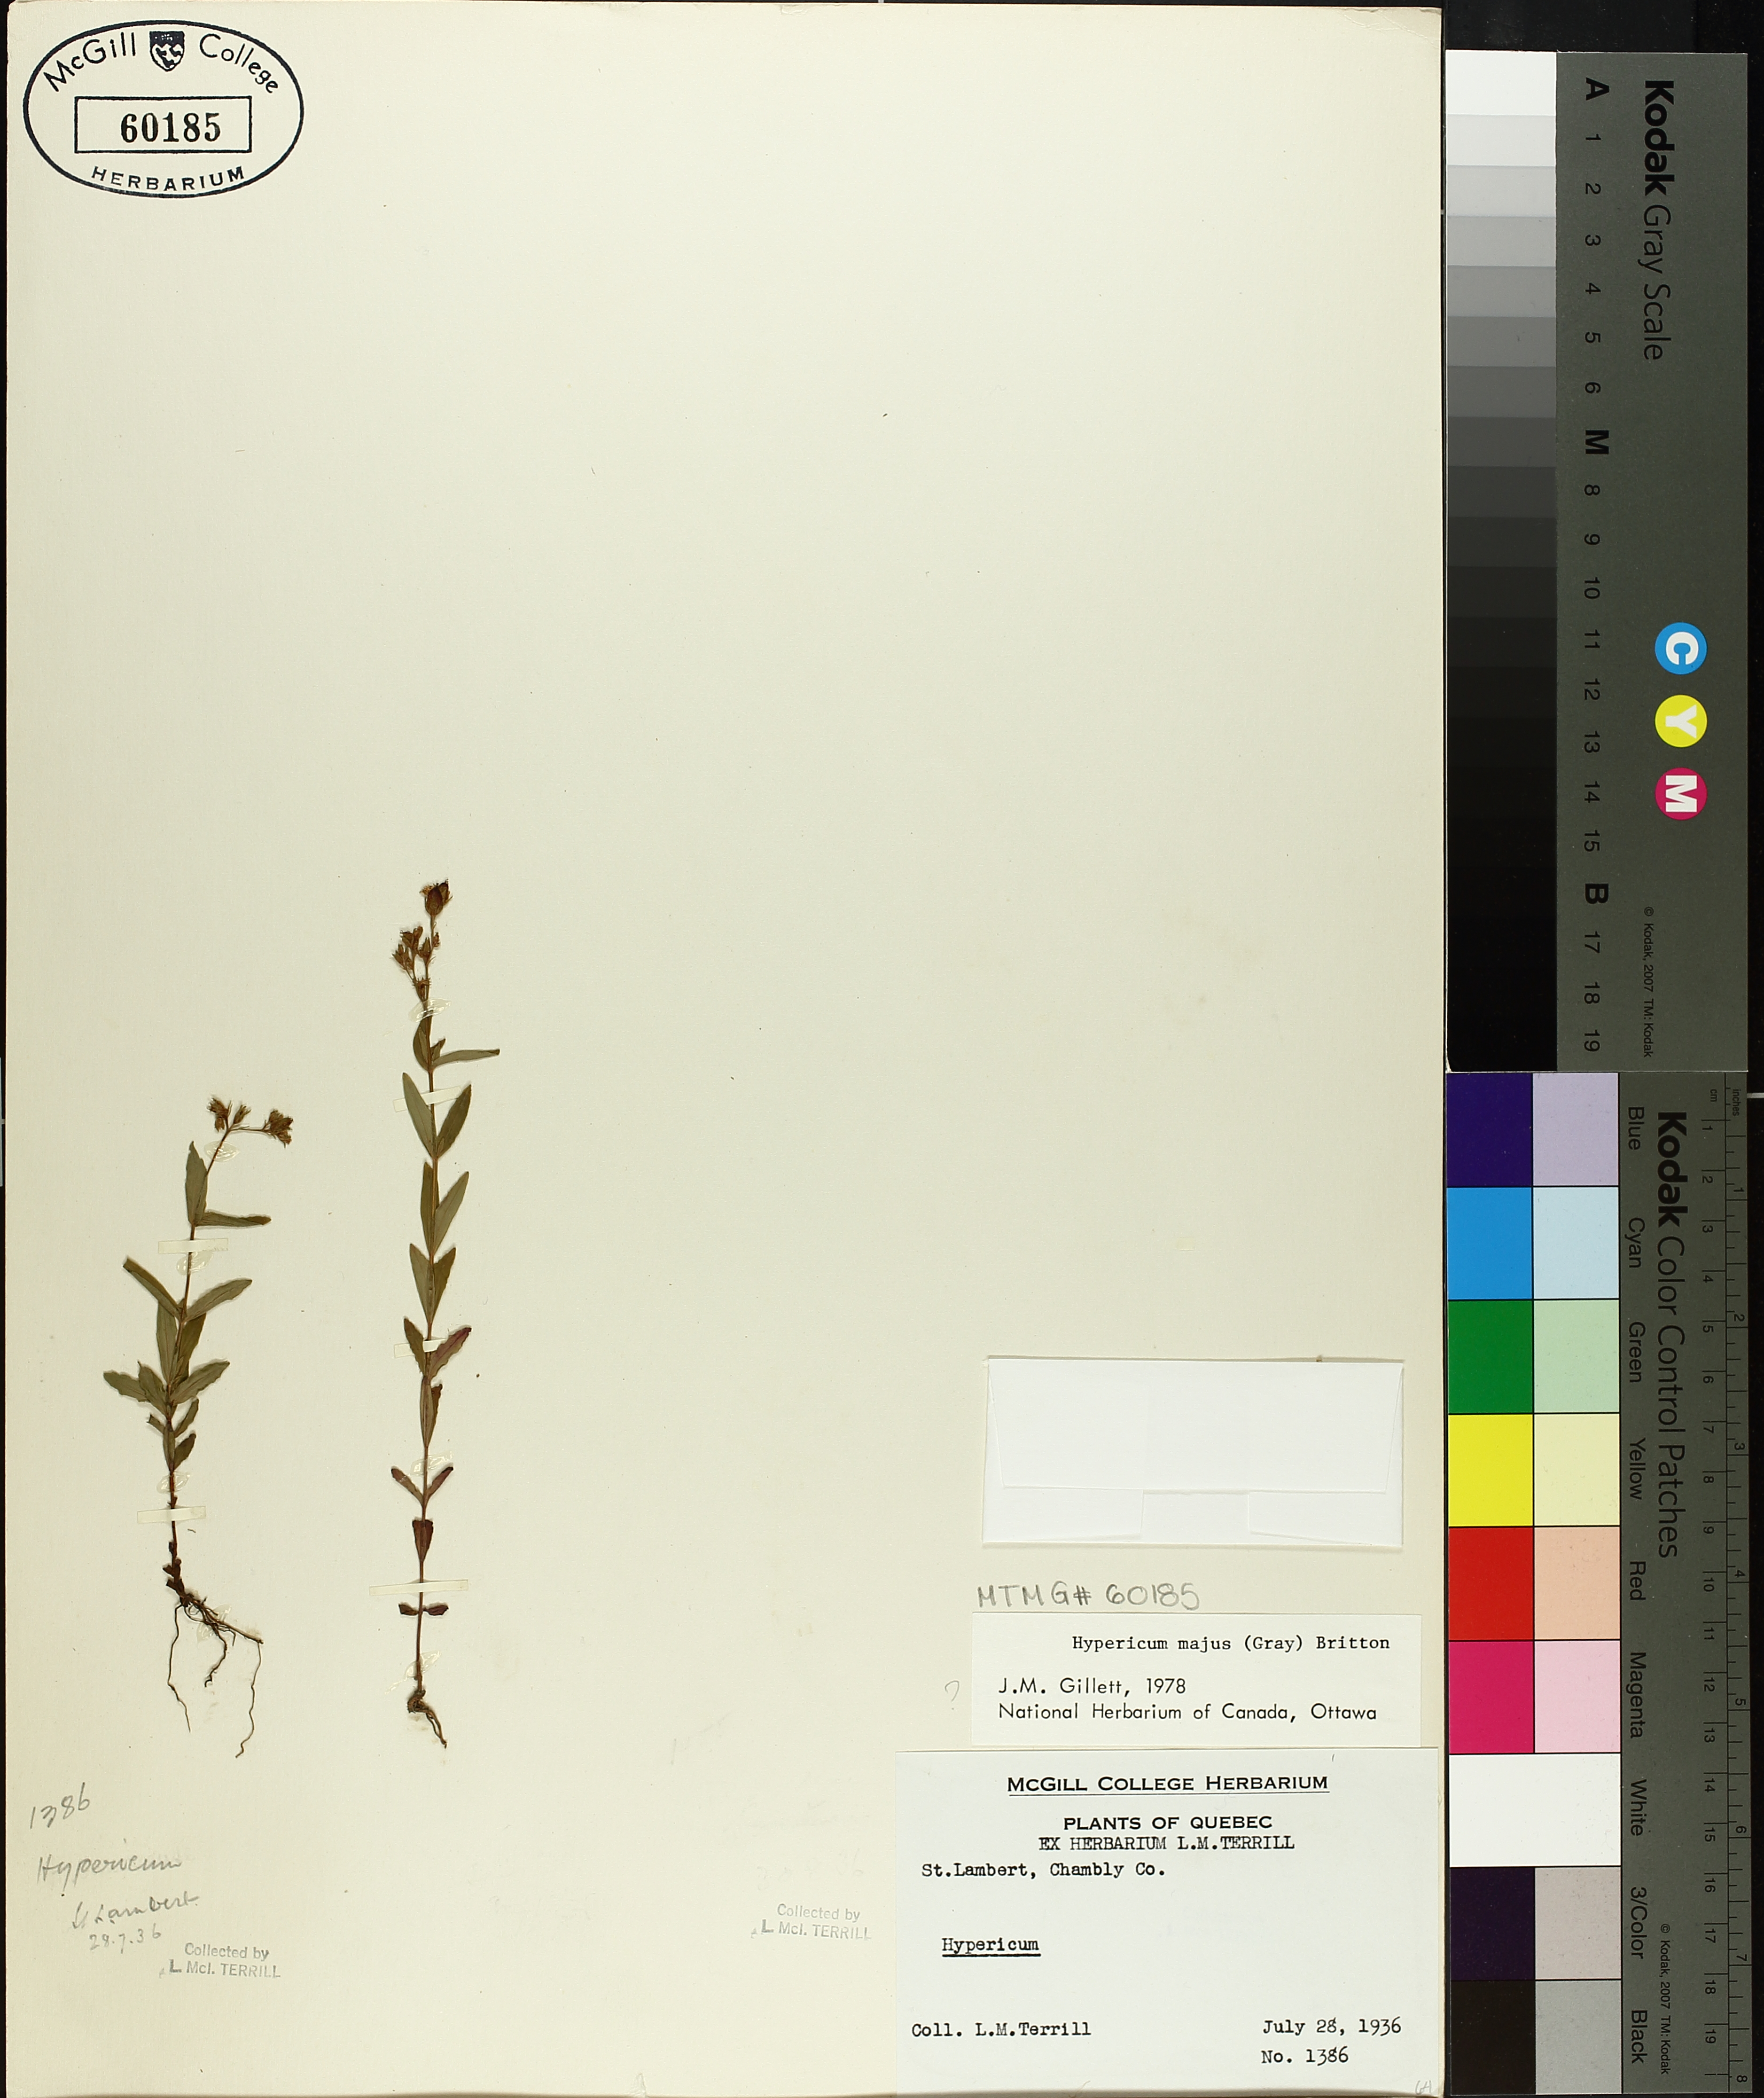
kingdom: Plantae
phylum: Tracheophyta
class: Magnoliopsida
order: Malpighiales
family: Hypericaceae
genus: Hypericum
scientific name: Hypericum majus
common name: Greater canadian st. john's-wort
